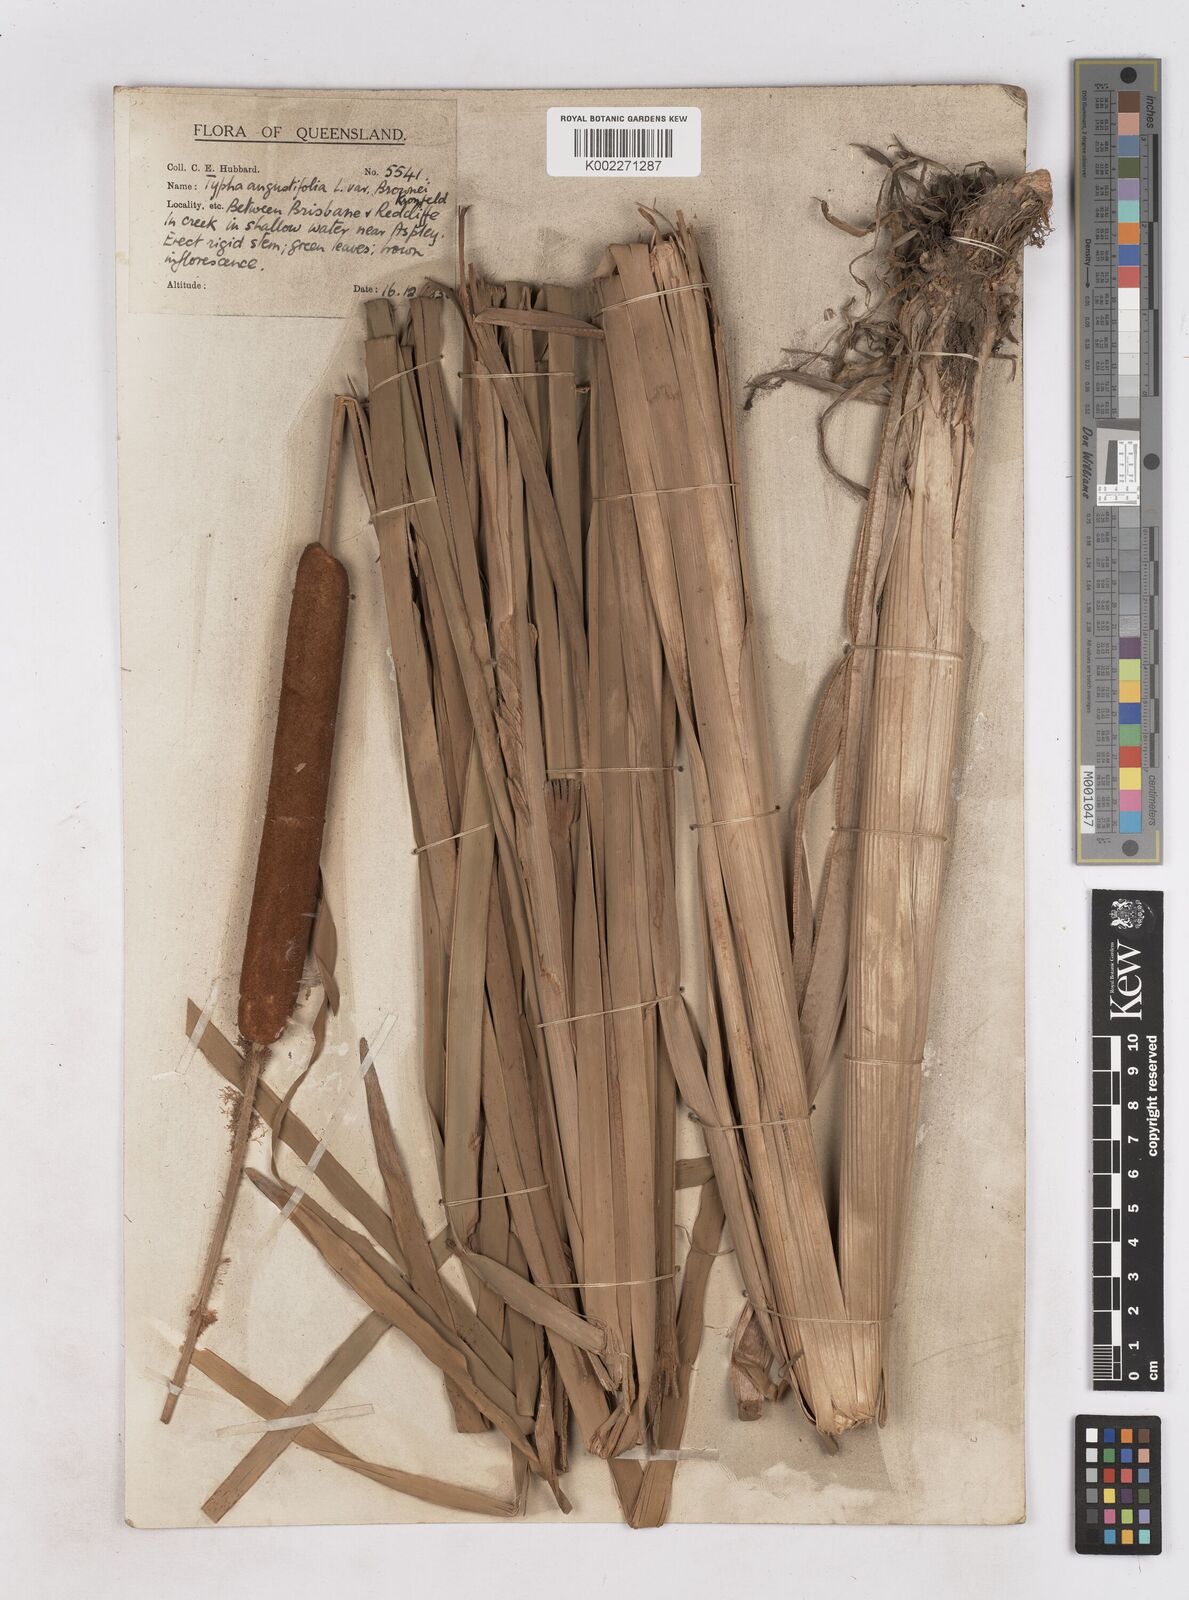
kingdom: Plantae
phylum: Tracheophyta
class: Liliopsida
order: Poales
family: Typhaceae
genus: Typha
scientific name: Typha domingensis
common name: Southern cattail
